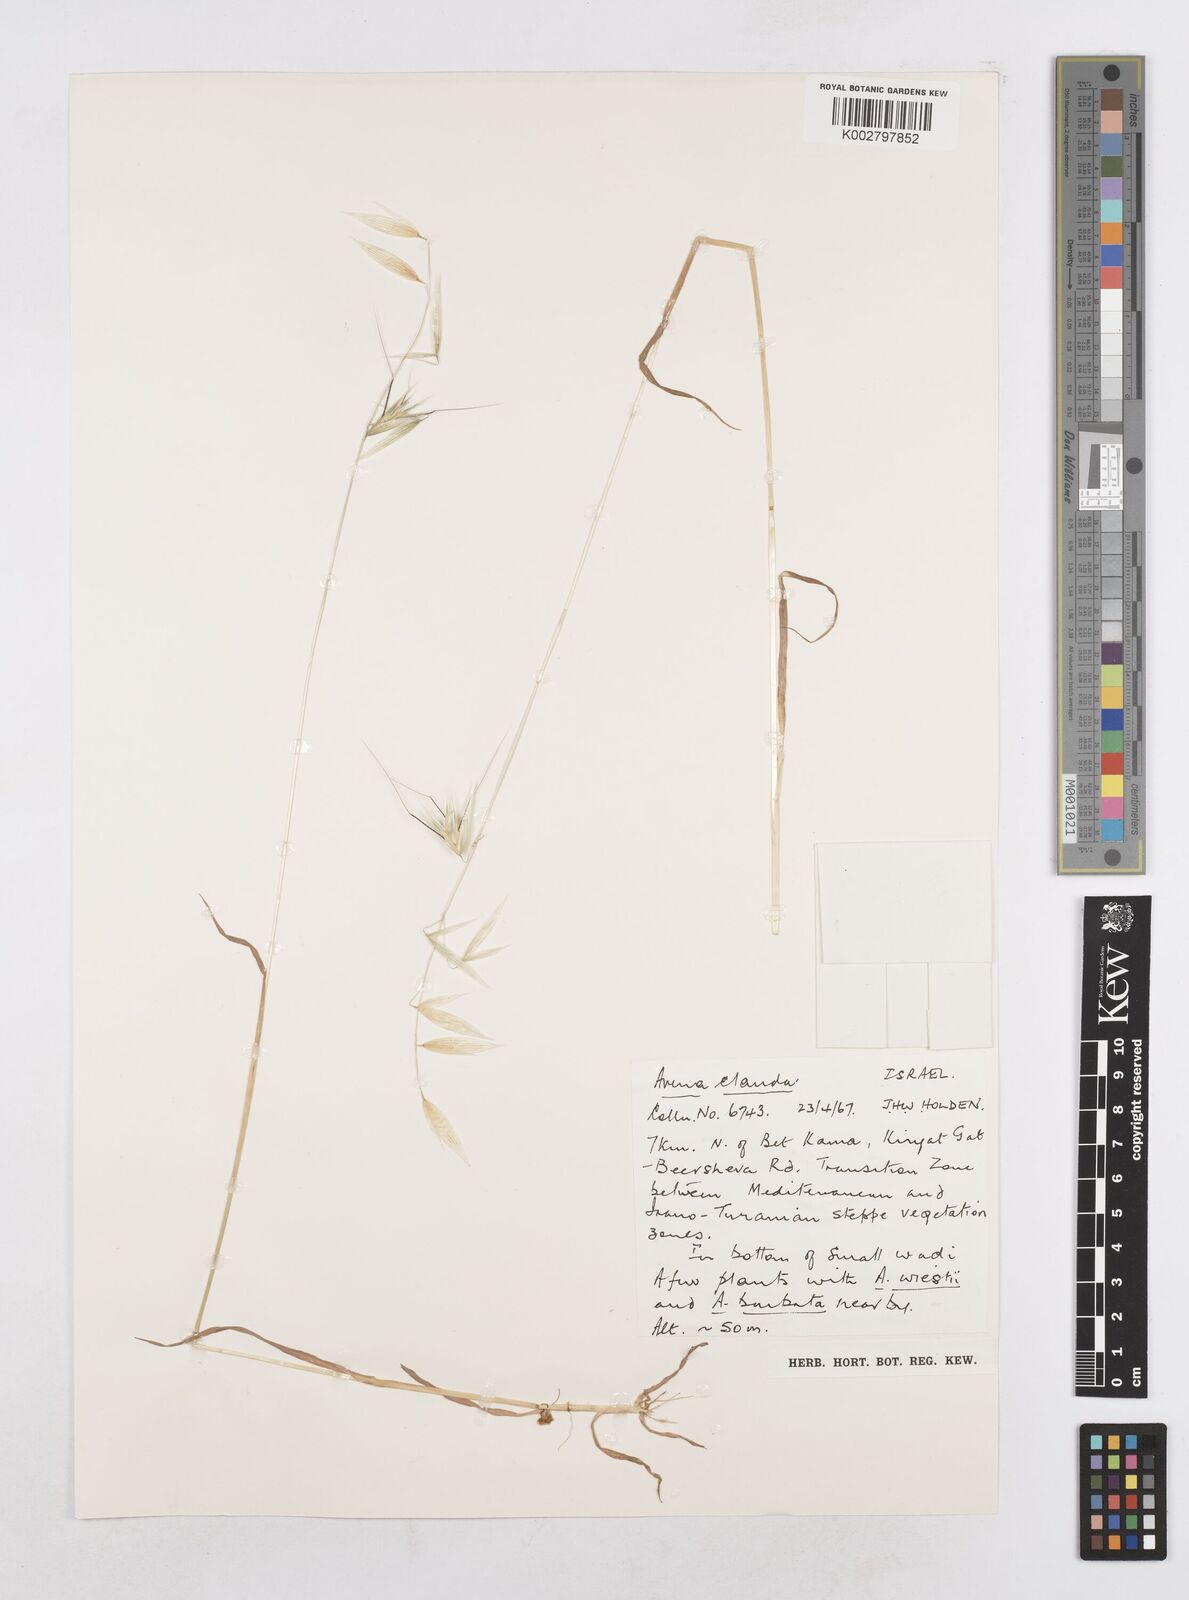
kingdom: Plantae
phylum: Tracheophyta
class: Liliopsida
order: Poales
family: Poaceae
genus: Avena
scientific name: Avena clauda
